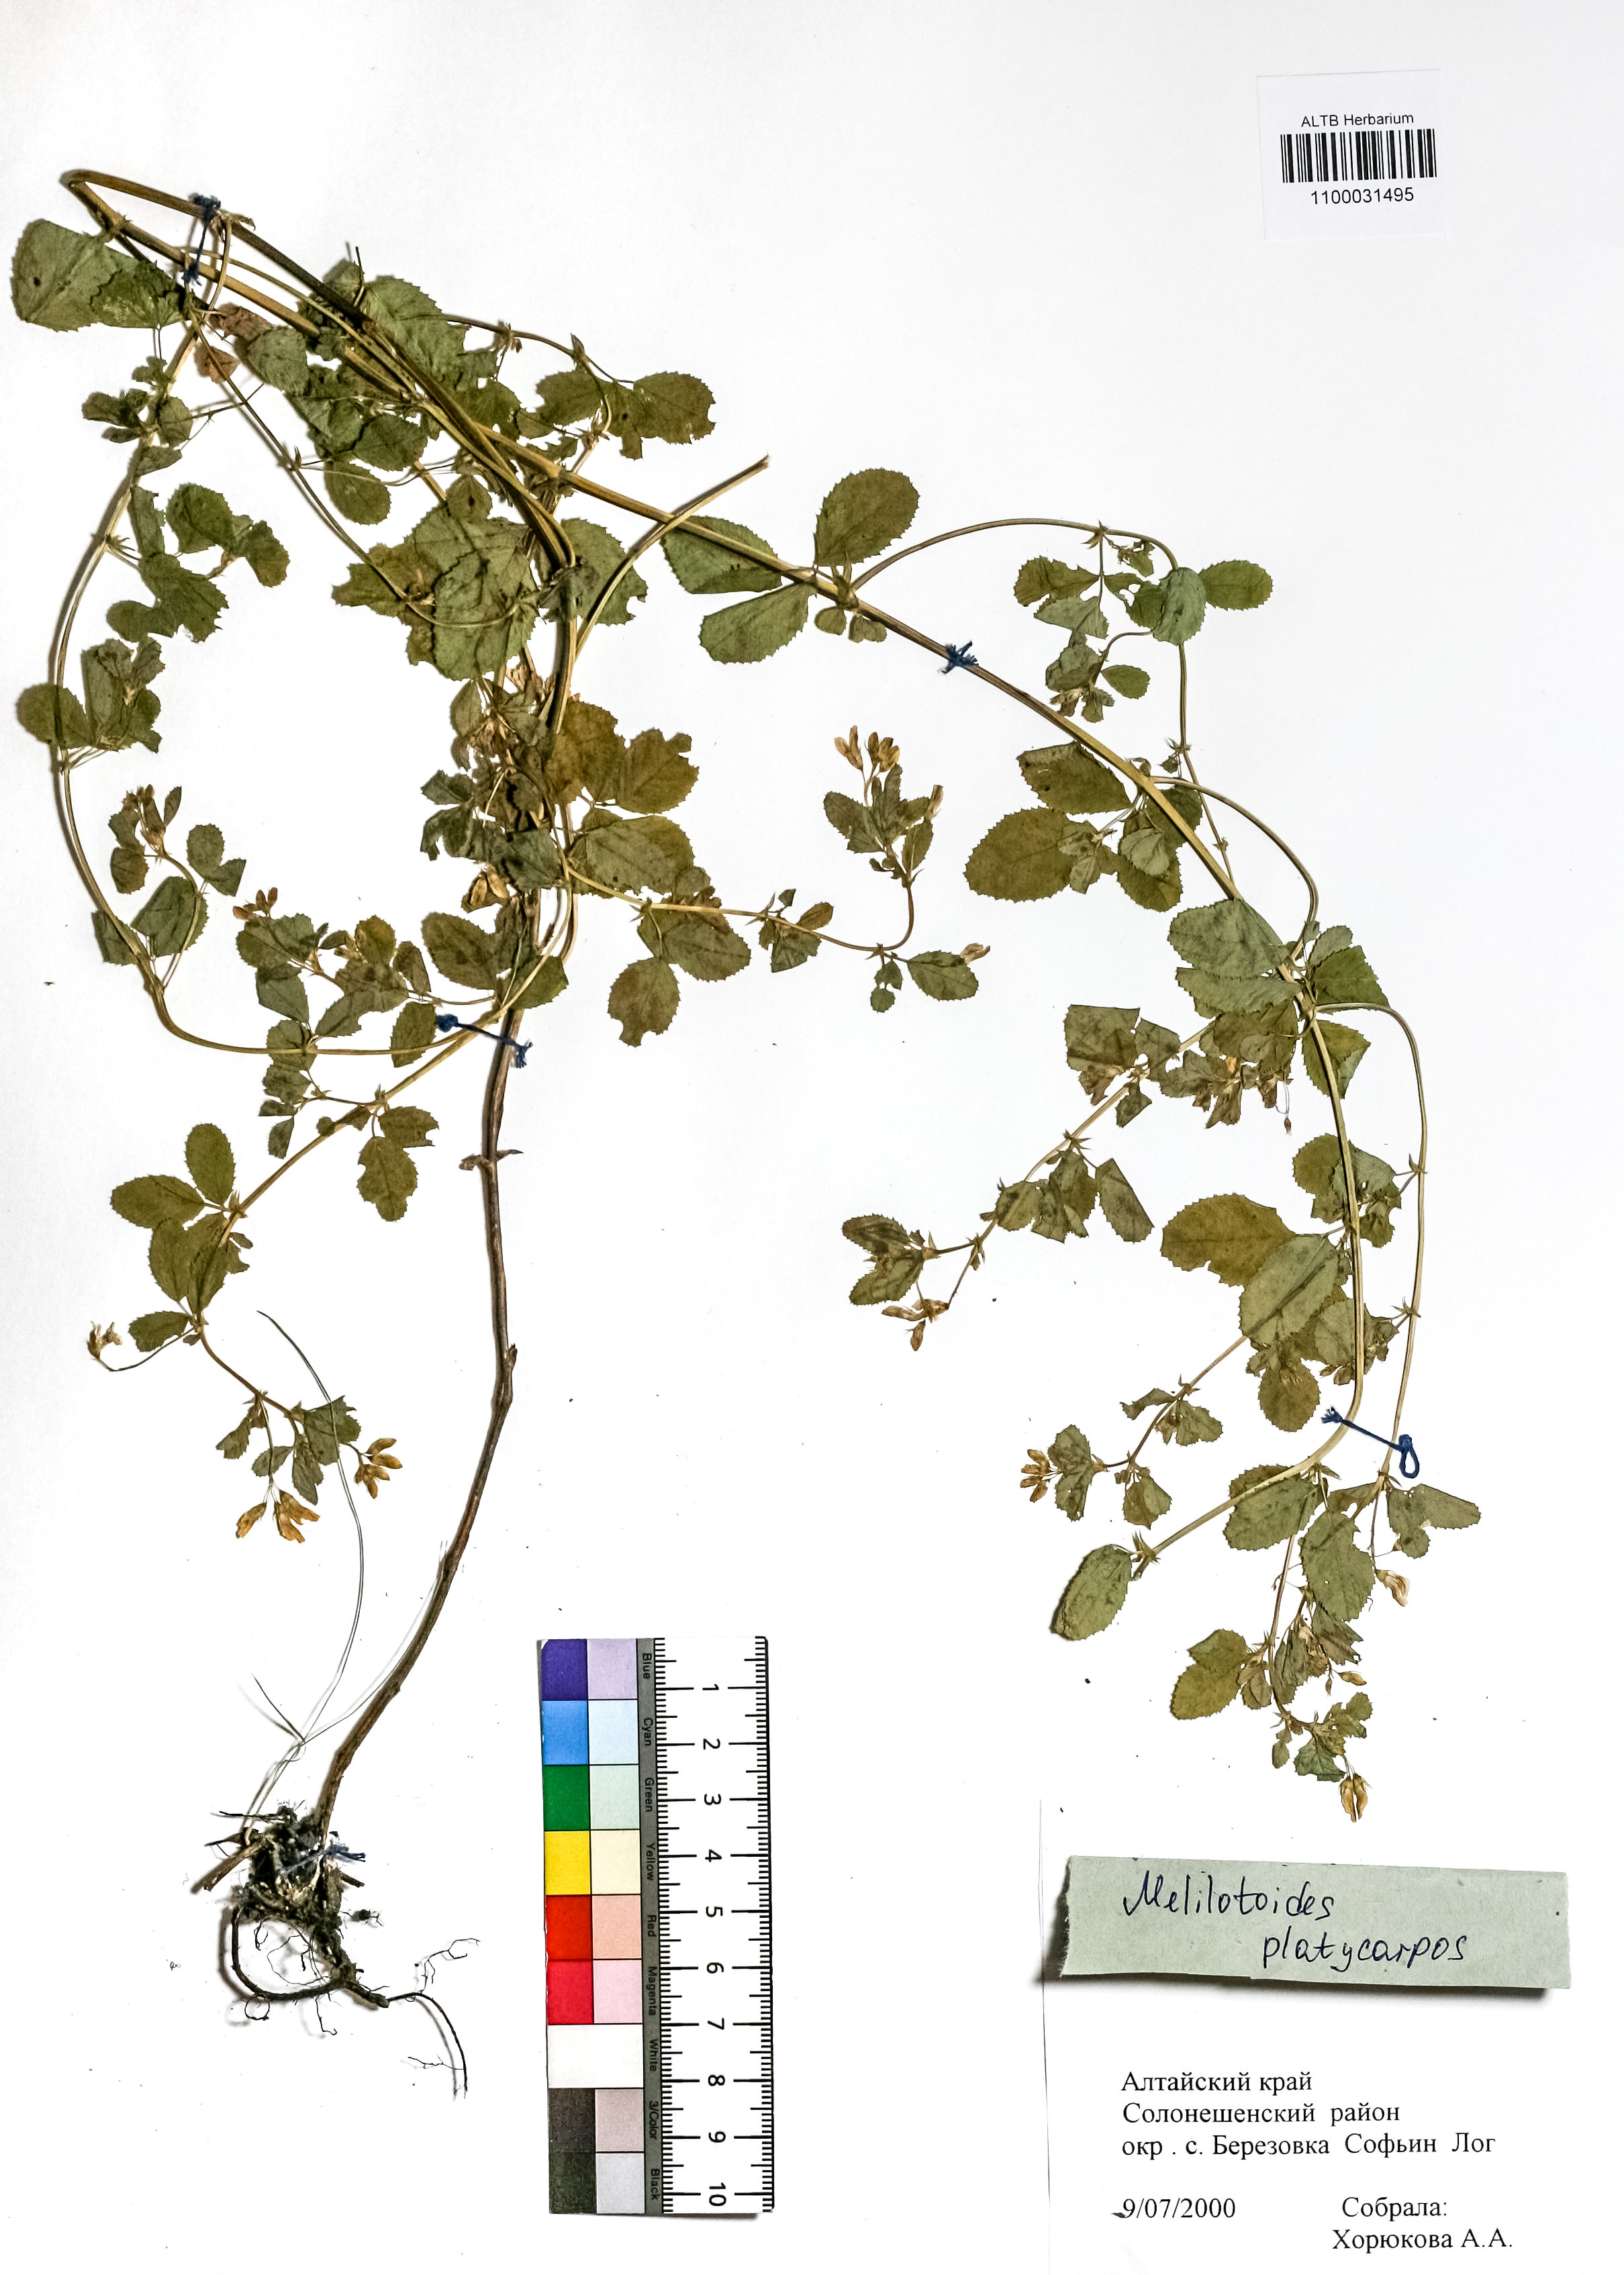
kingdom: Plantae
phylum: Tracheophyta
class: Magnoliopsida
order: Fabales
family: Fabaceae
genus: Medicago
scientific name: Medicago platycarpos
